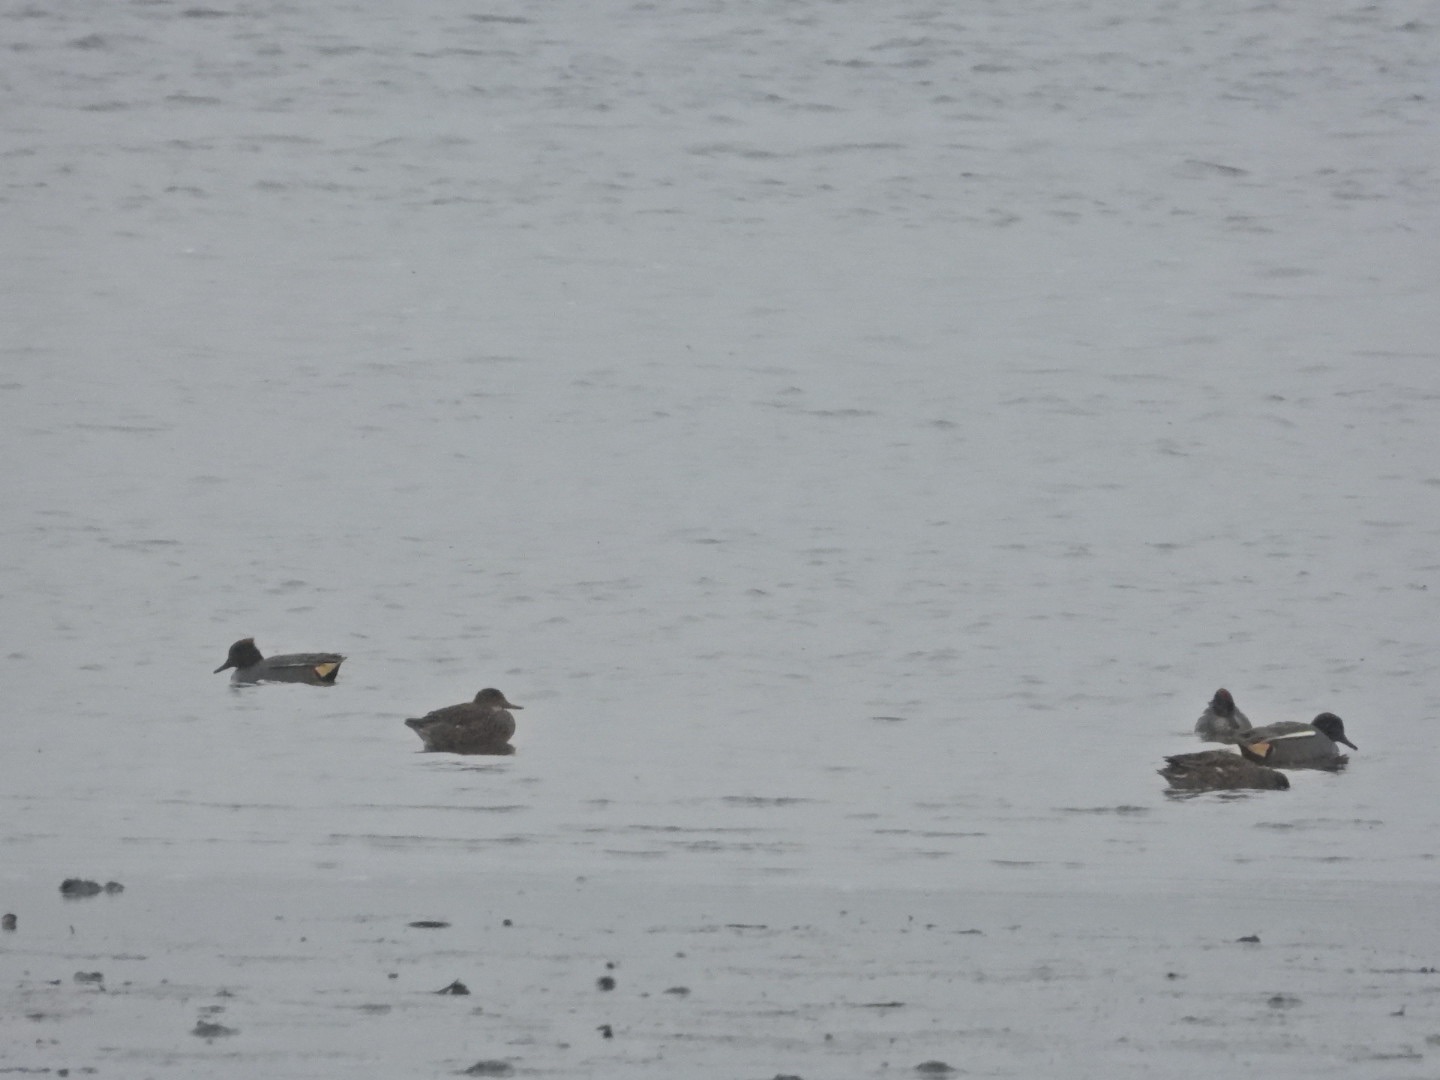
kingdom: Animalia
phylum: Chordata
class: Aves
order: Anseriformes
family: Anatidae
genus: Anas
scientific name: Anas crecca
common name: Krikand
